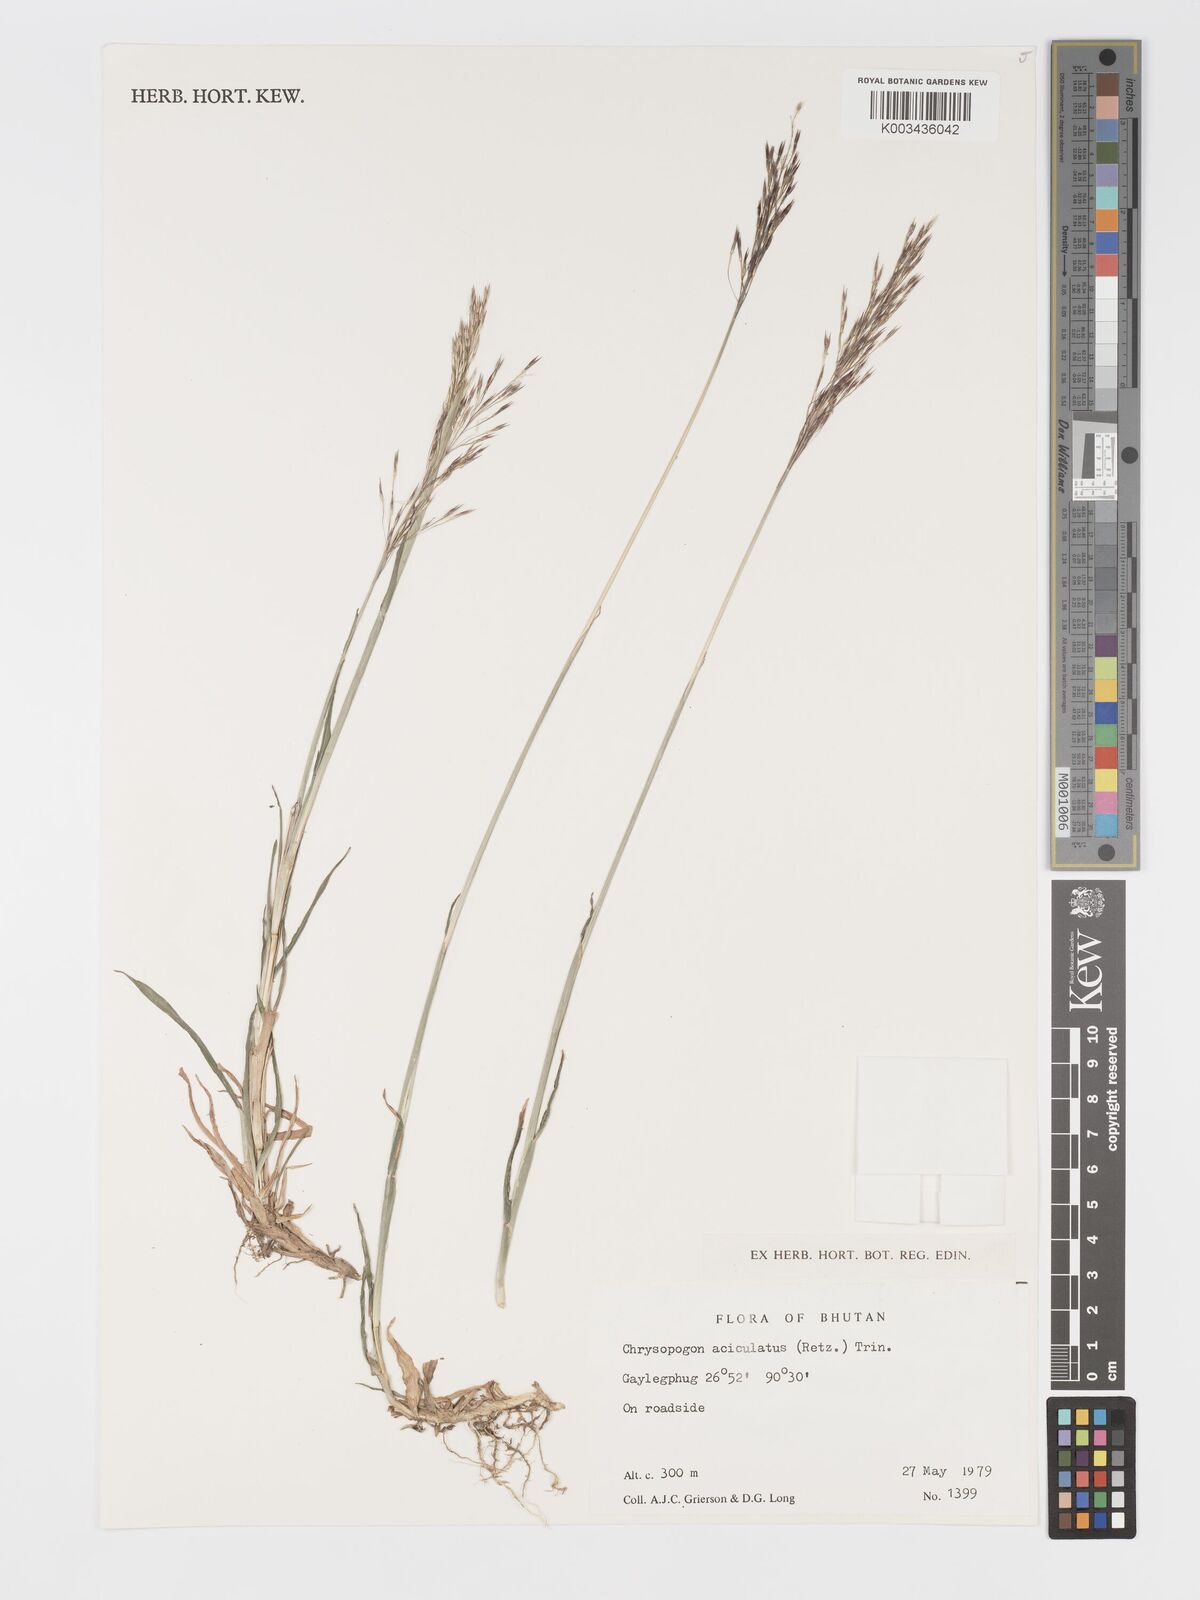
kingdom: Plantae
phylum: Tracheophyta
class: Liliopsida
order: Poales
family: Poaceae
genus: Chrysopogon
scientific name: Chrysopogon aciculatus
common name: Pilipiliula
